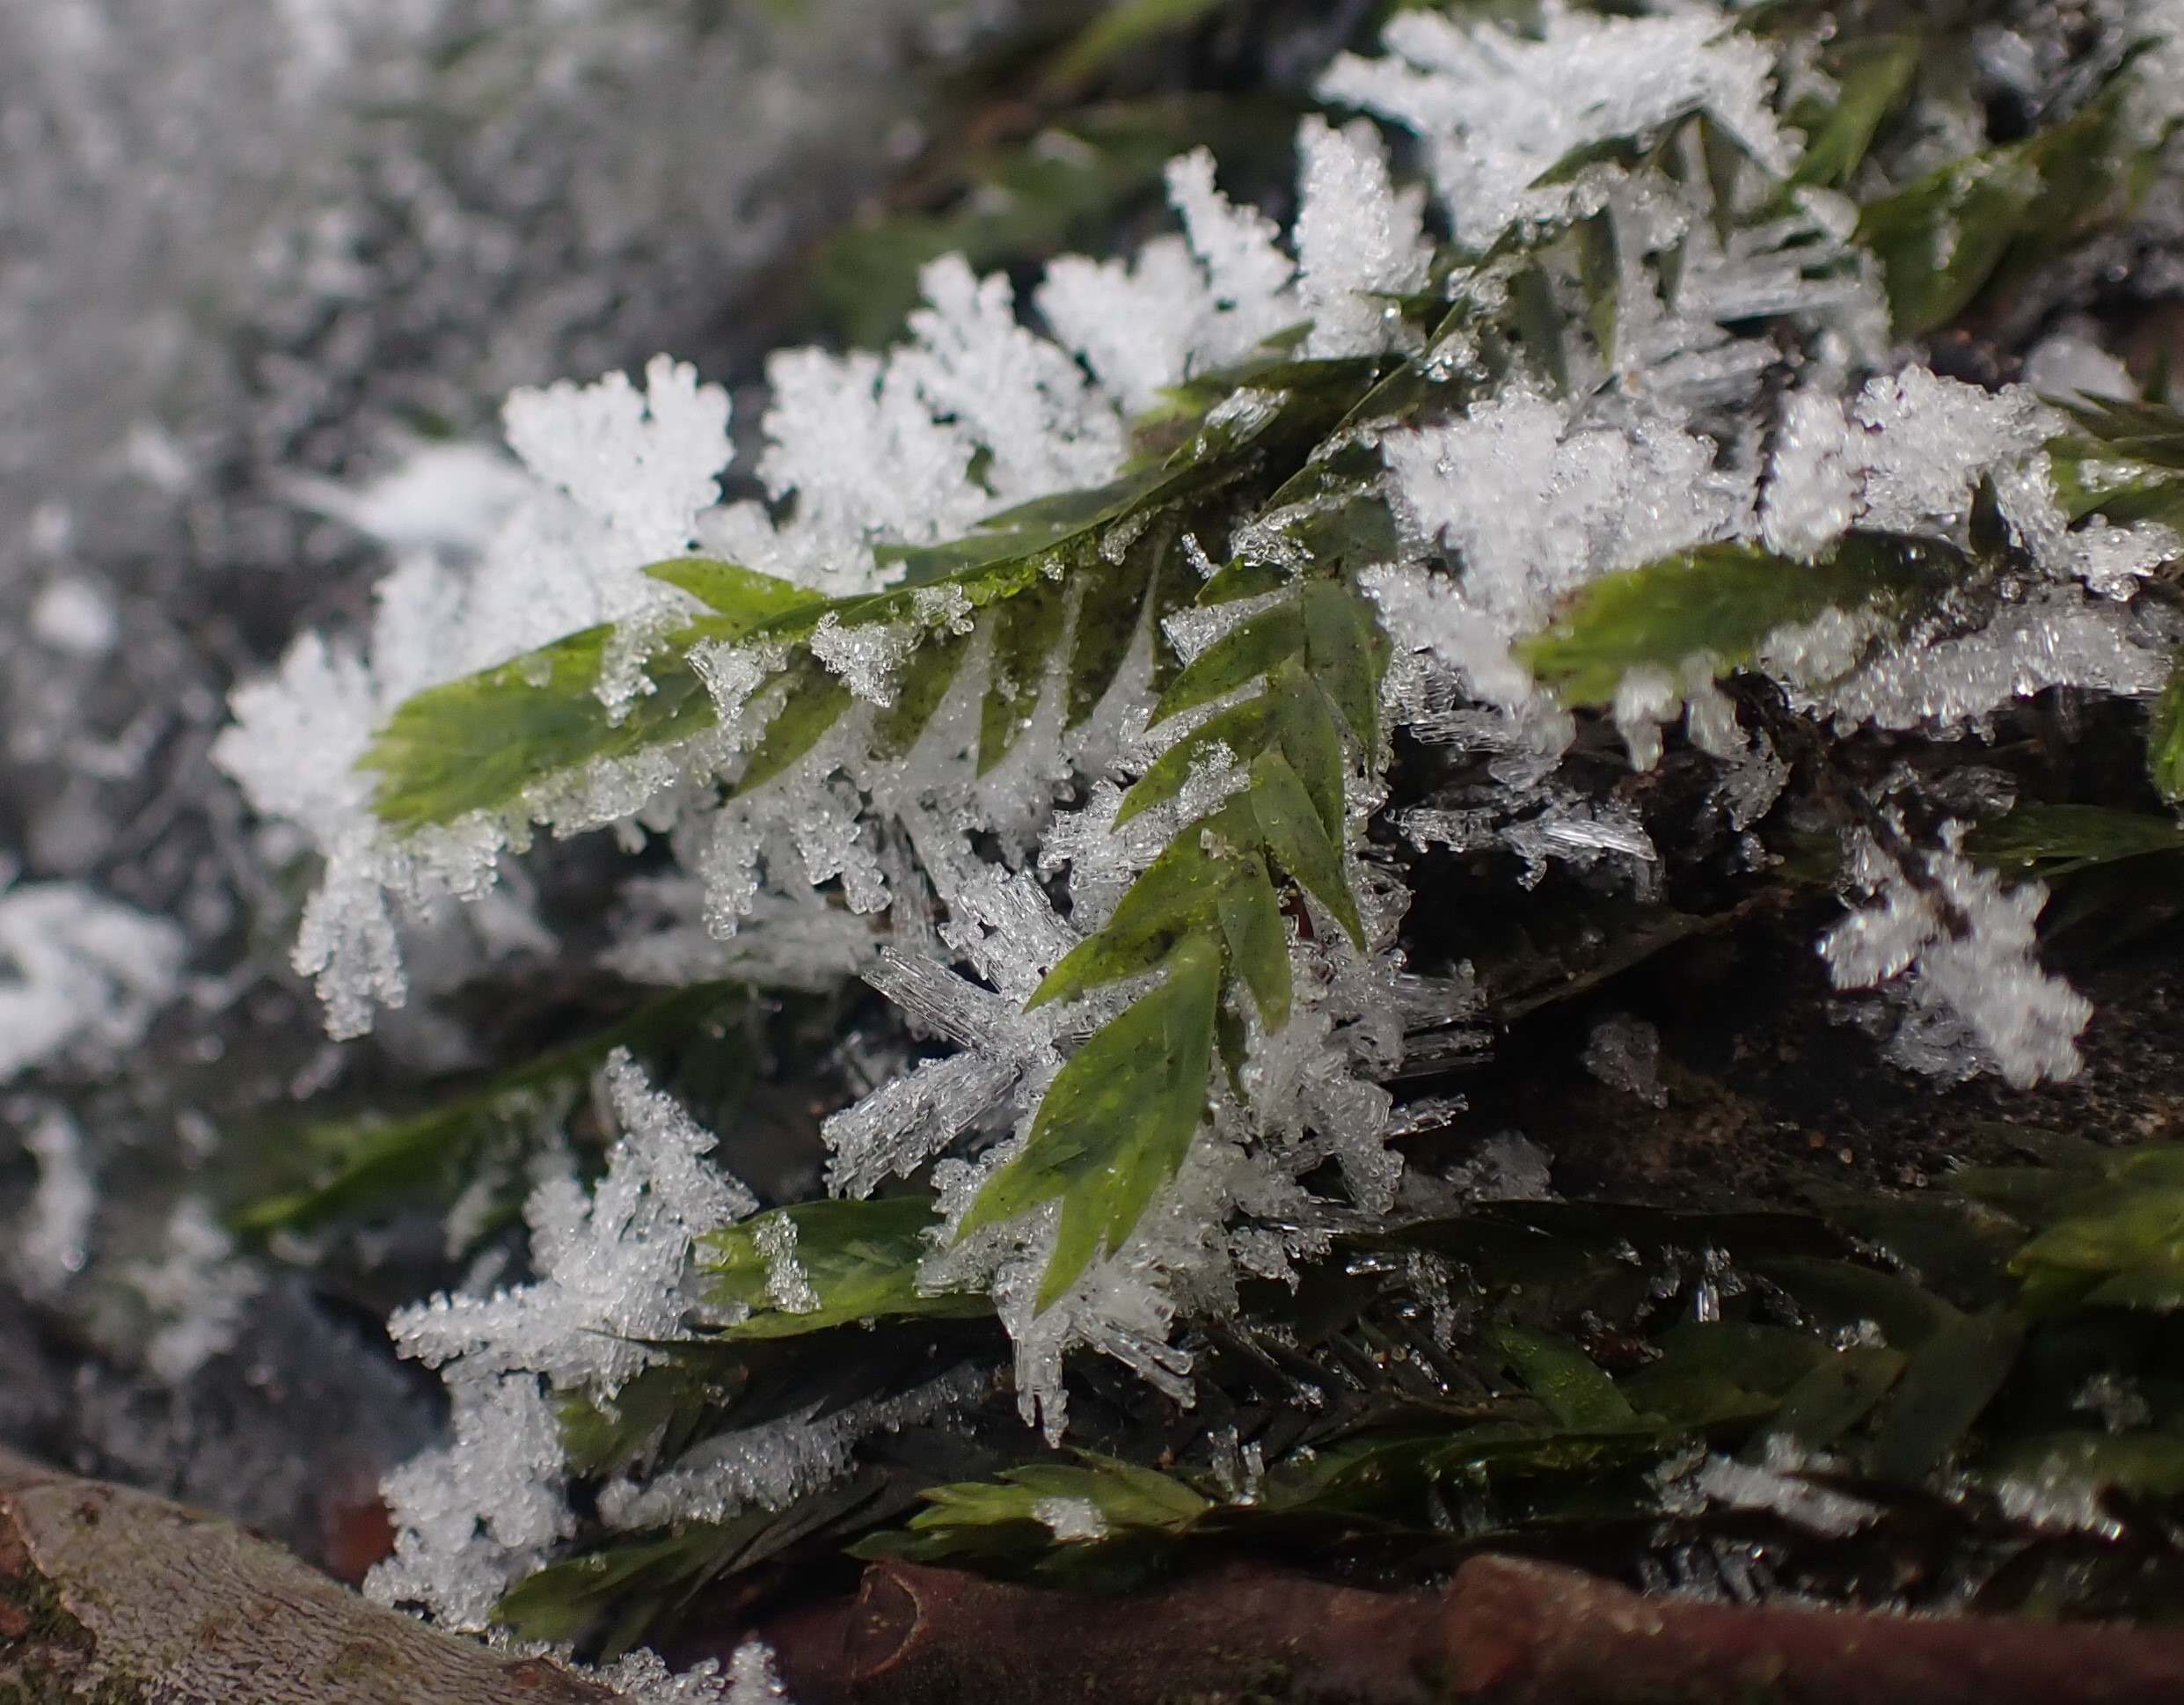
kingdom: Plantae
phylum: Bryophyta
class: Bryopsida
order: Hypnales
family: Fontinalaceae
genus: Fontinalis
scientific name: Fontinalis antipyretica
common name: Stor kildemos
